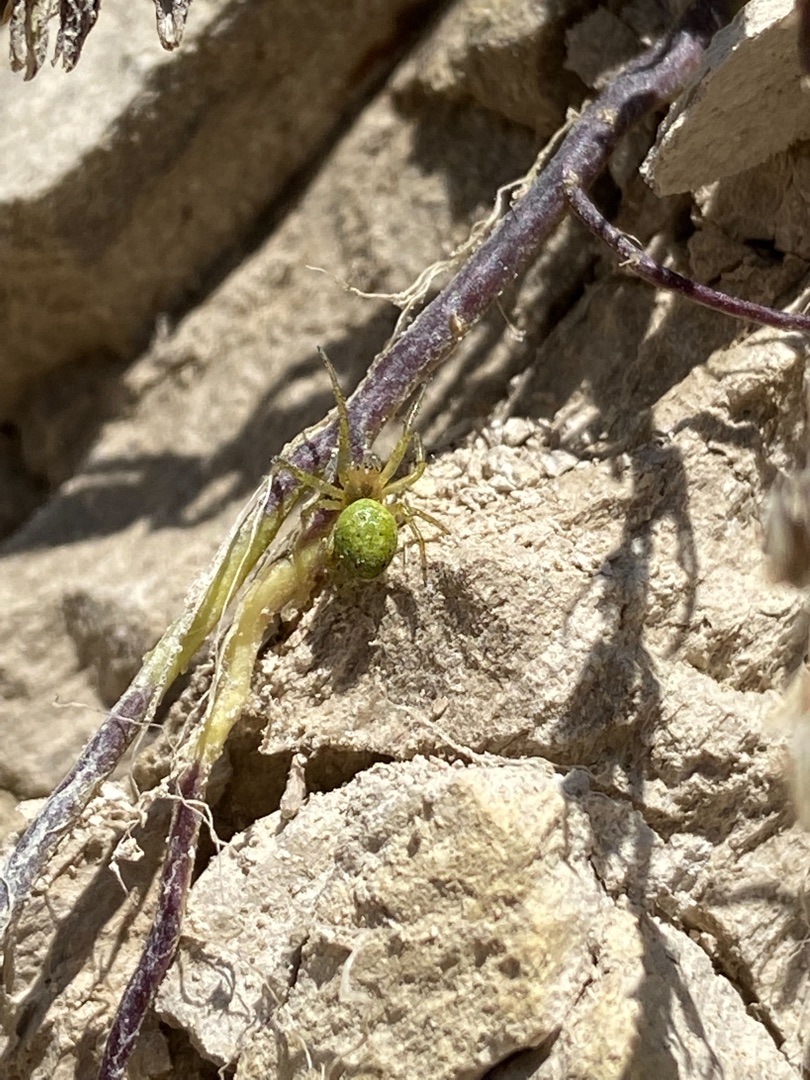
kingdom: Animalia
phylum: Arthropoda
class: Arachnida
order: Araneae
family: Araneidae
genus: Araniella
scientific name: Araniella
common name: Agurkeedderkopslægten
